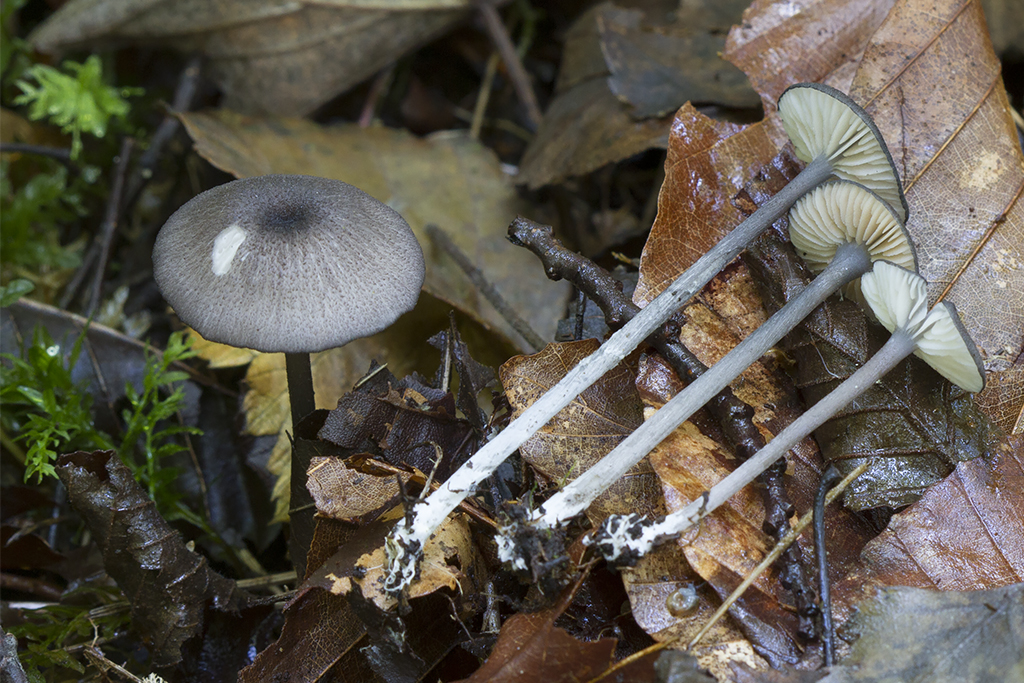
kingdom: Fungi
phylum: Basidiomycota
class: Agaricomycetes
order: Agaricales
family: Entolomataceae
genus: Entoloma
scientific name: Entoloma nordlandicum
